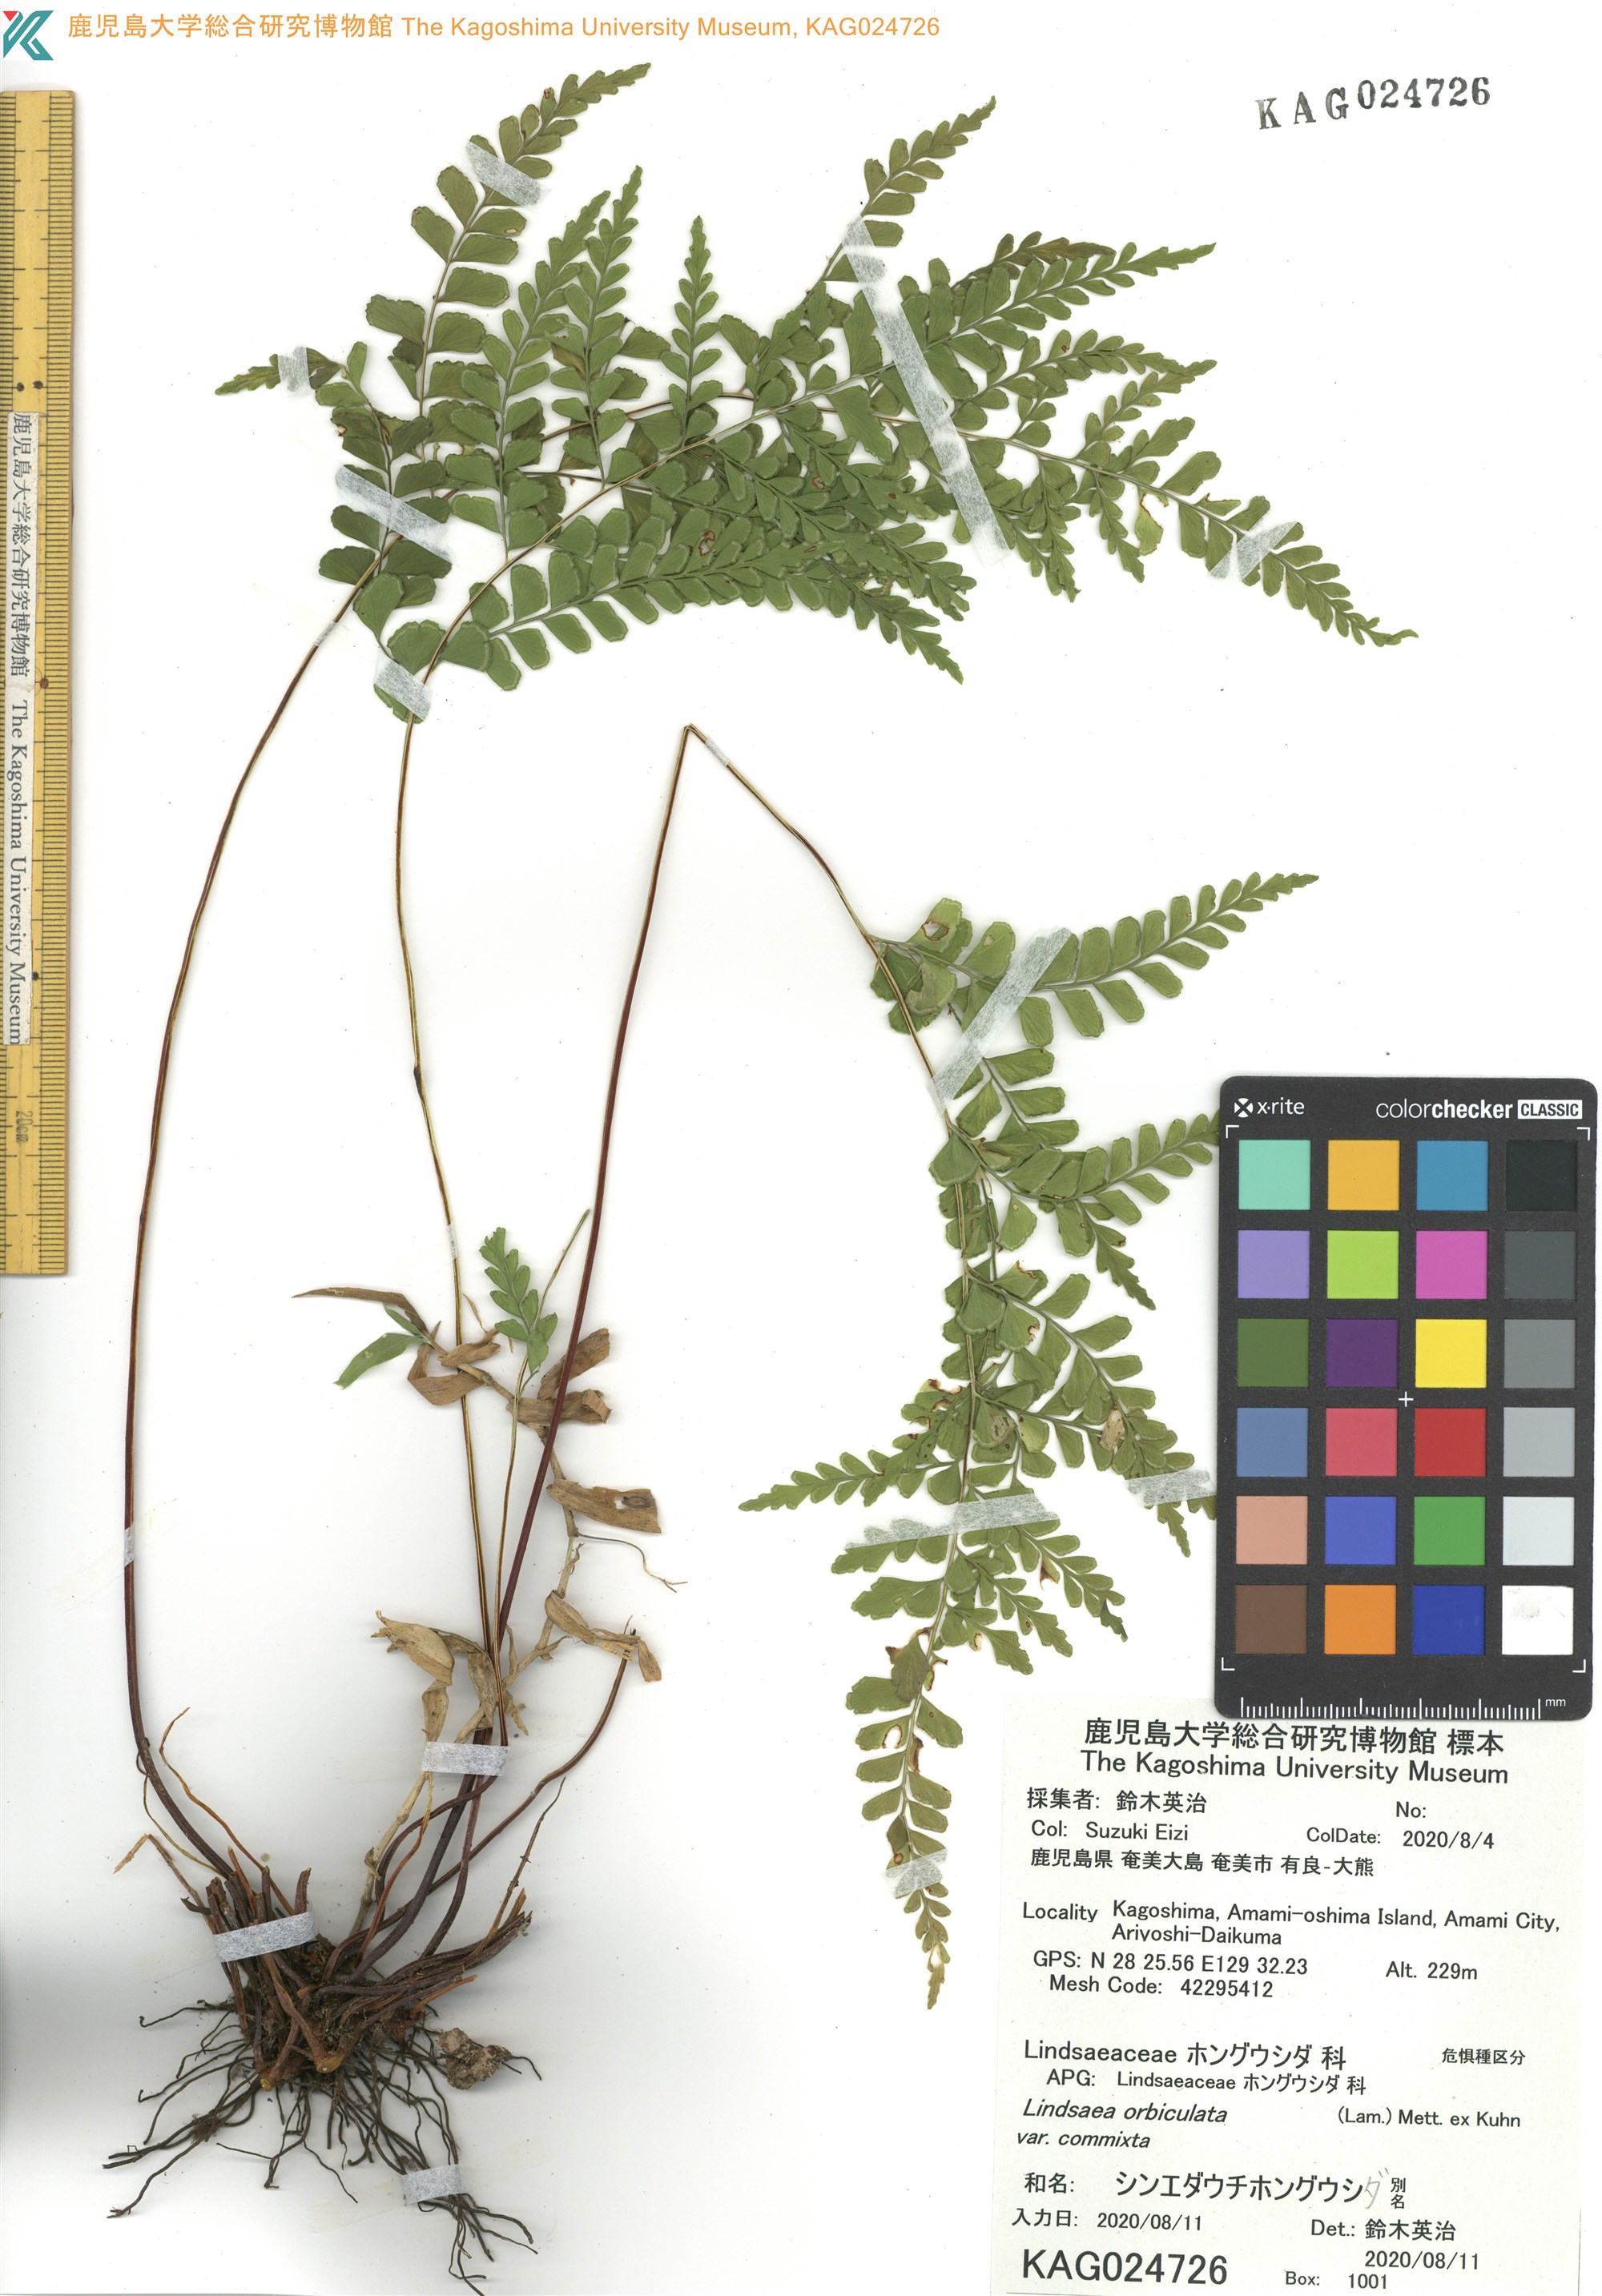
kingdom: Plantae
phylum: Tracheophyta
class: Polypodiopsida
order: Polypodiales
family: Lindsaeaceae
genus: Lindsaea
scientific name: Lindsaea bonii
